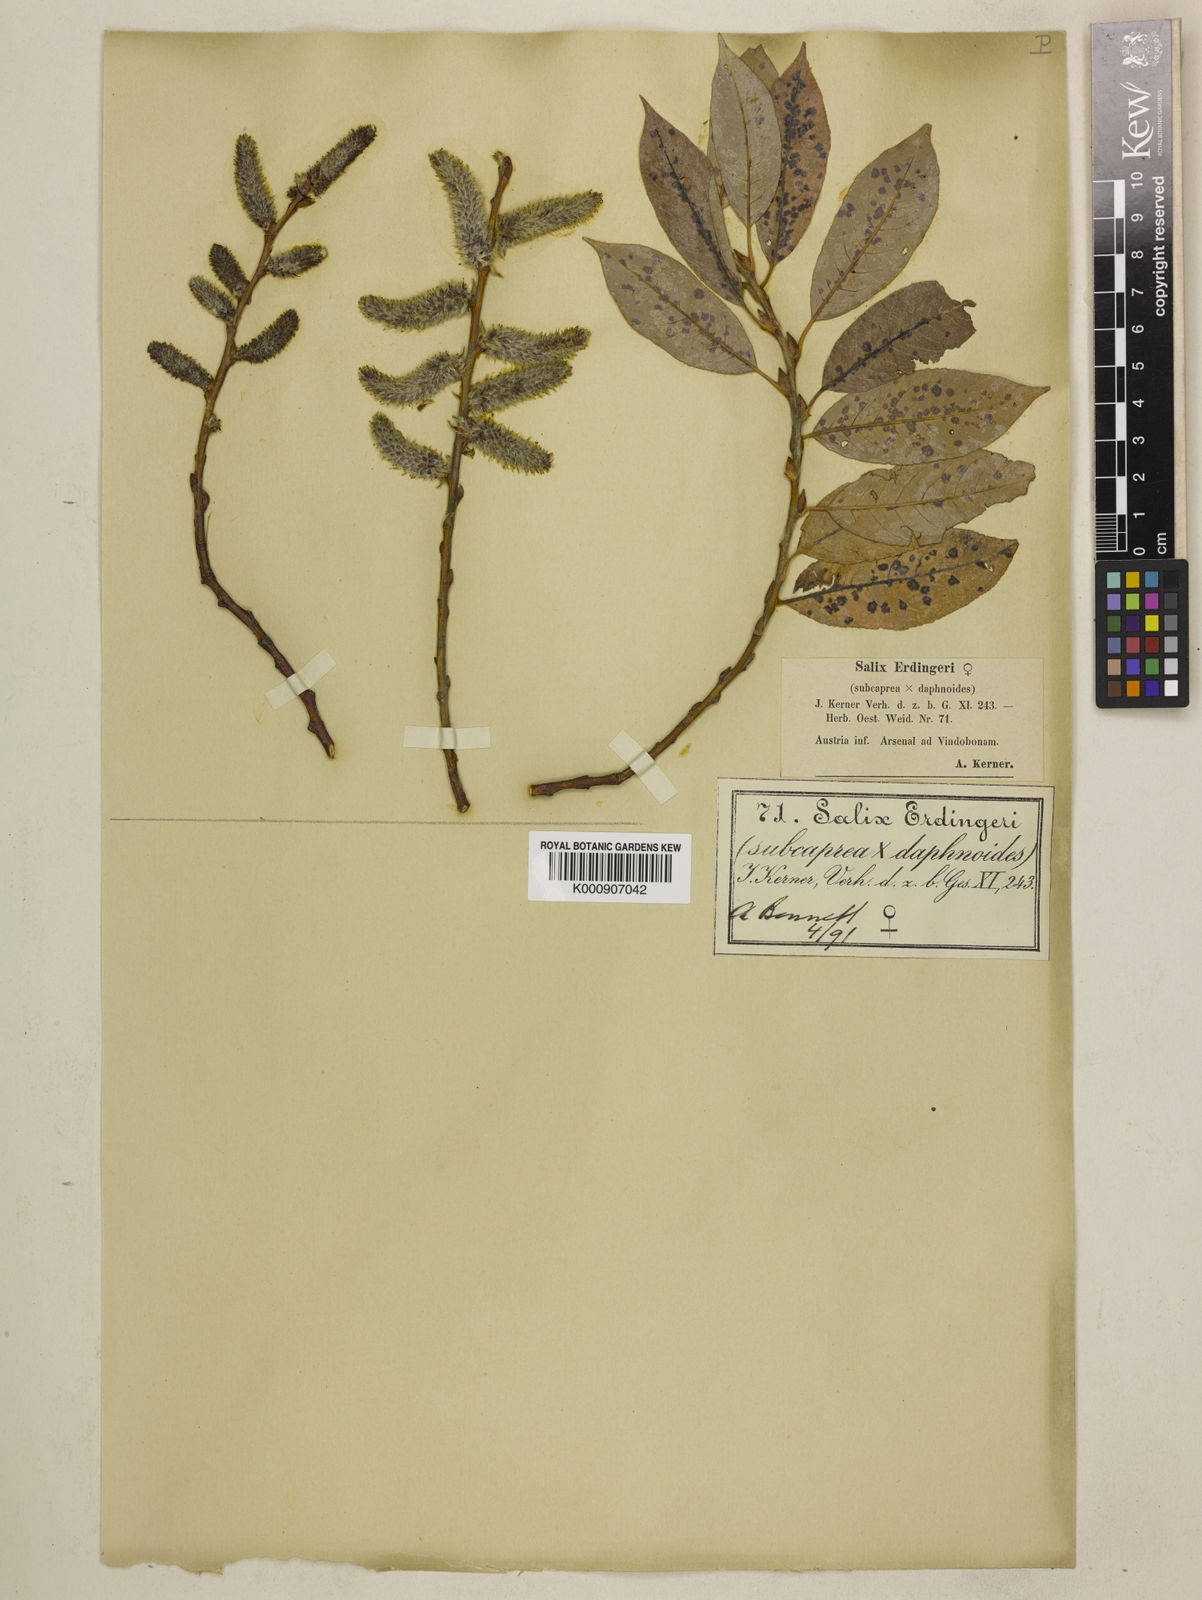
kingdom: Plantae
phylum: Tracheophyta
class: Magnoliopsida
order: Malpighiales
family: Salicaceae
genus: Salix
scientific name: Salix caprea
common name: Goat willow
